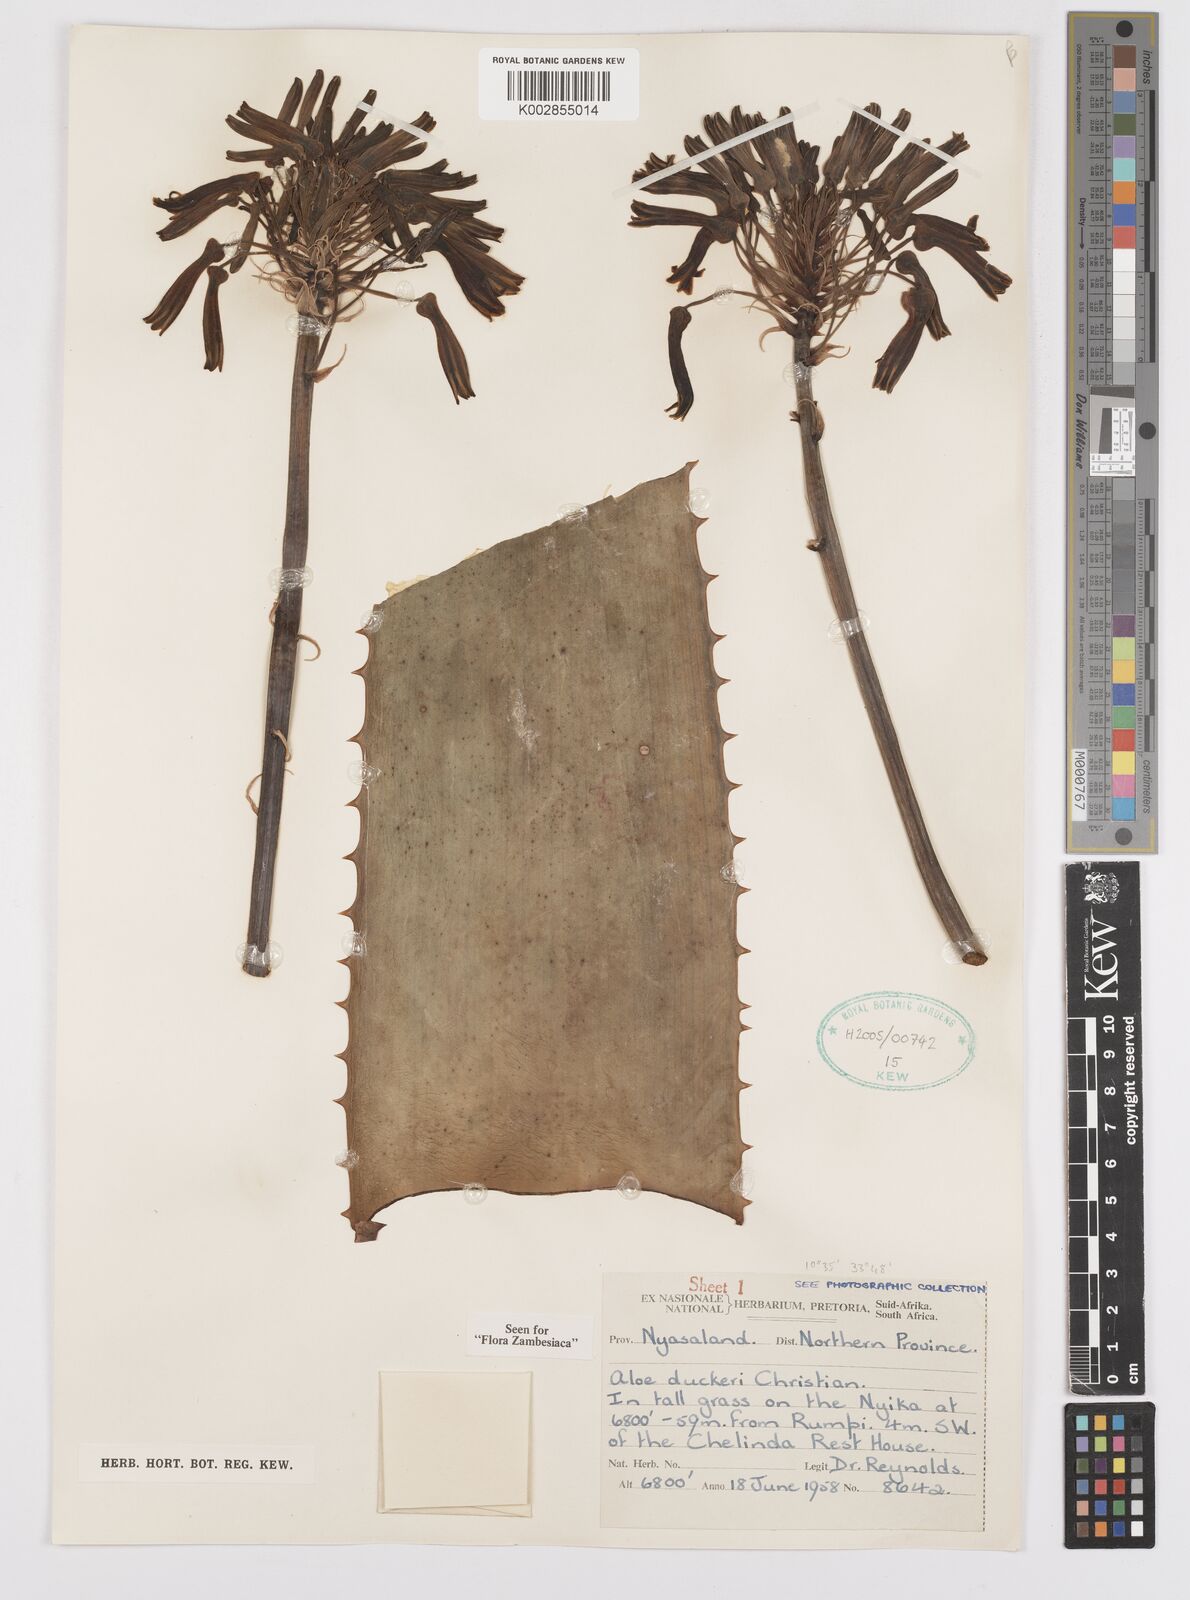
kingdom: Plantae
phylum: Tracheophyta
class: Liliopsida
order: Asparagales
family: Asphodelaceae
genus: Aloe
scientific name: Aloe duckeri
